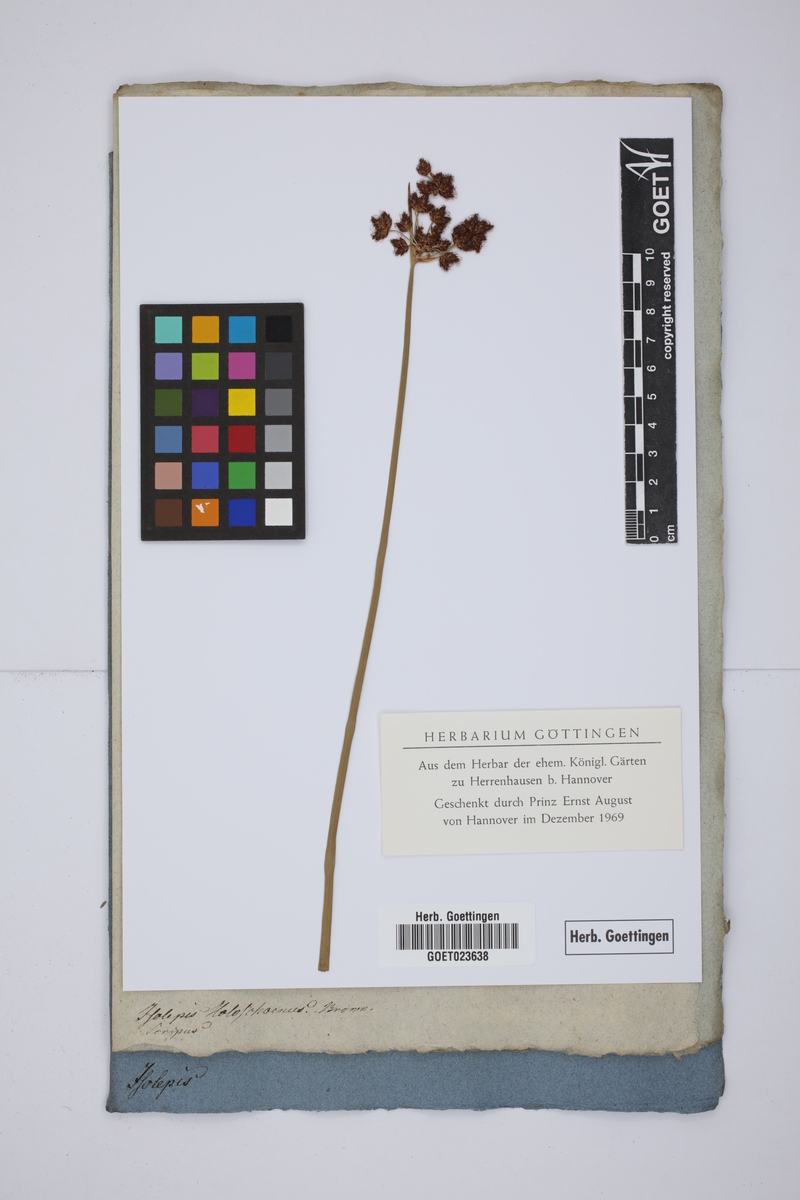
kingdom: Plantae
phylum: Tracheophyta
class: Liliopsida
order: Poales
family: Cyperaceae
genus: Scirpoides
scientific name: Scirpoides holoschoenus
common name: Round-headed club-rush
